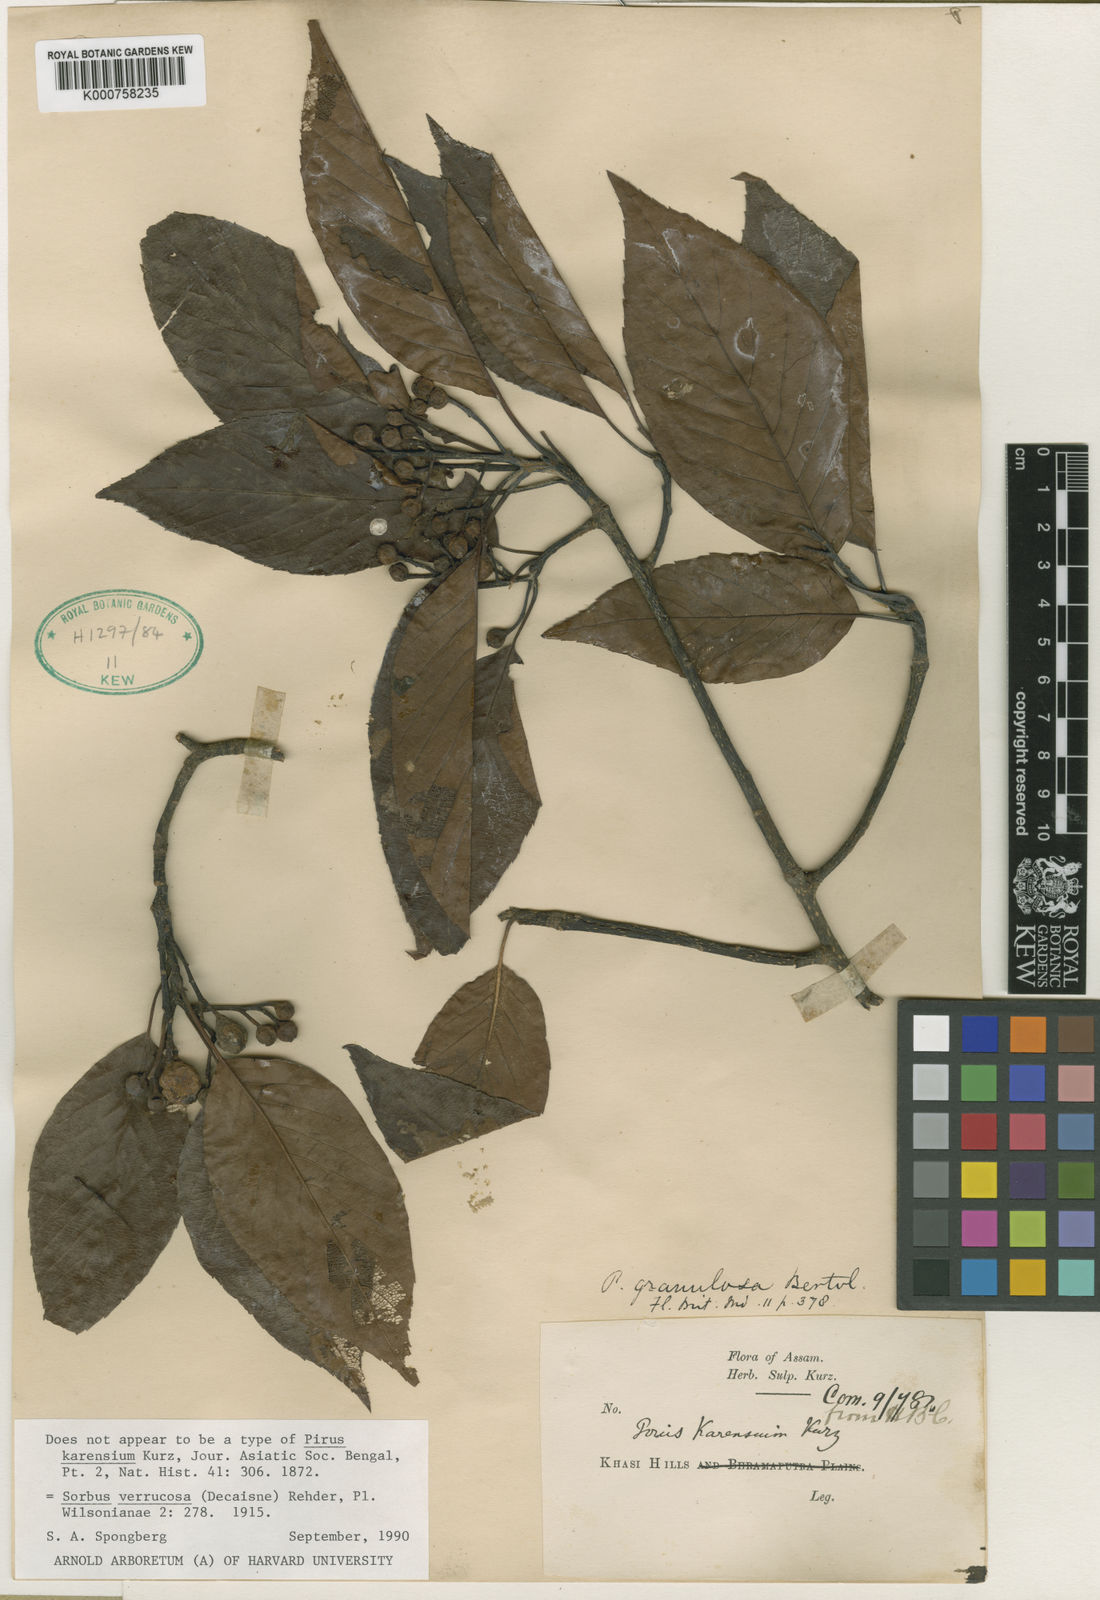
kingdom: Plantae
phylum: Tracheophyta
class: Magnoliopsida
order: Rosales
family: Rosaceae
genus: Micromeles
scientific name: Micromeles cuspidata
